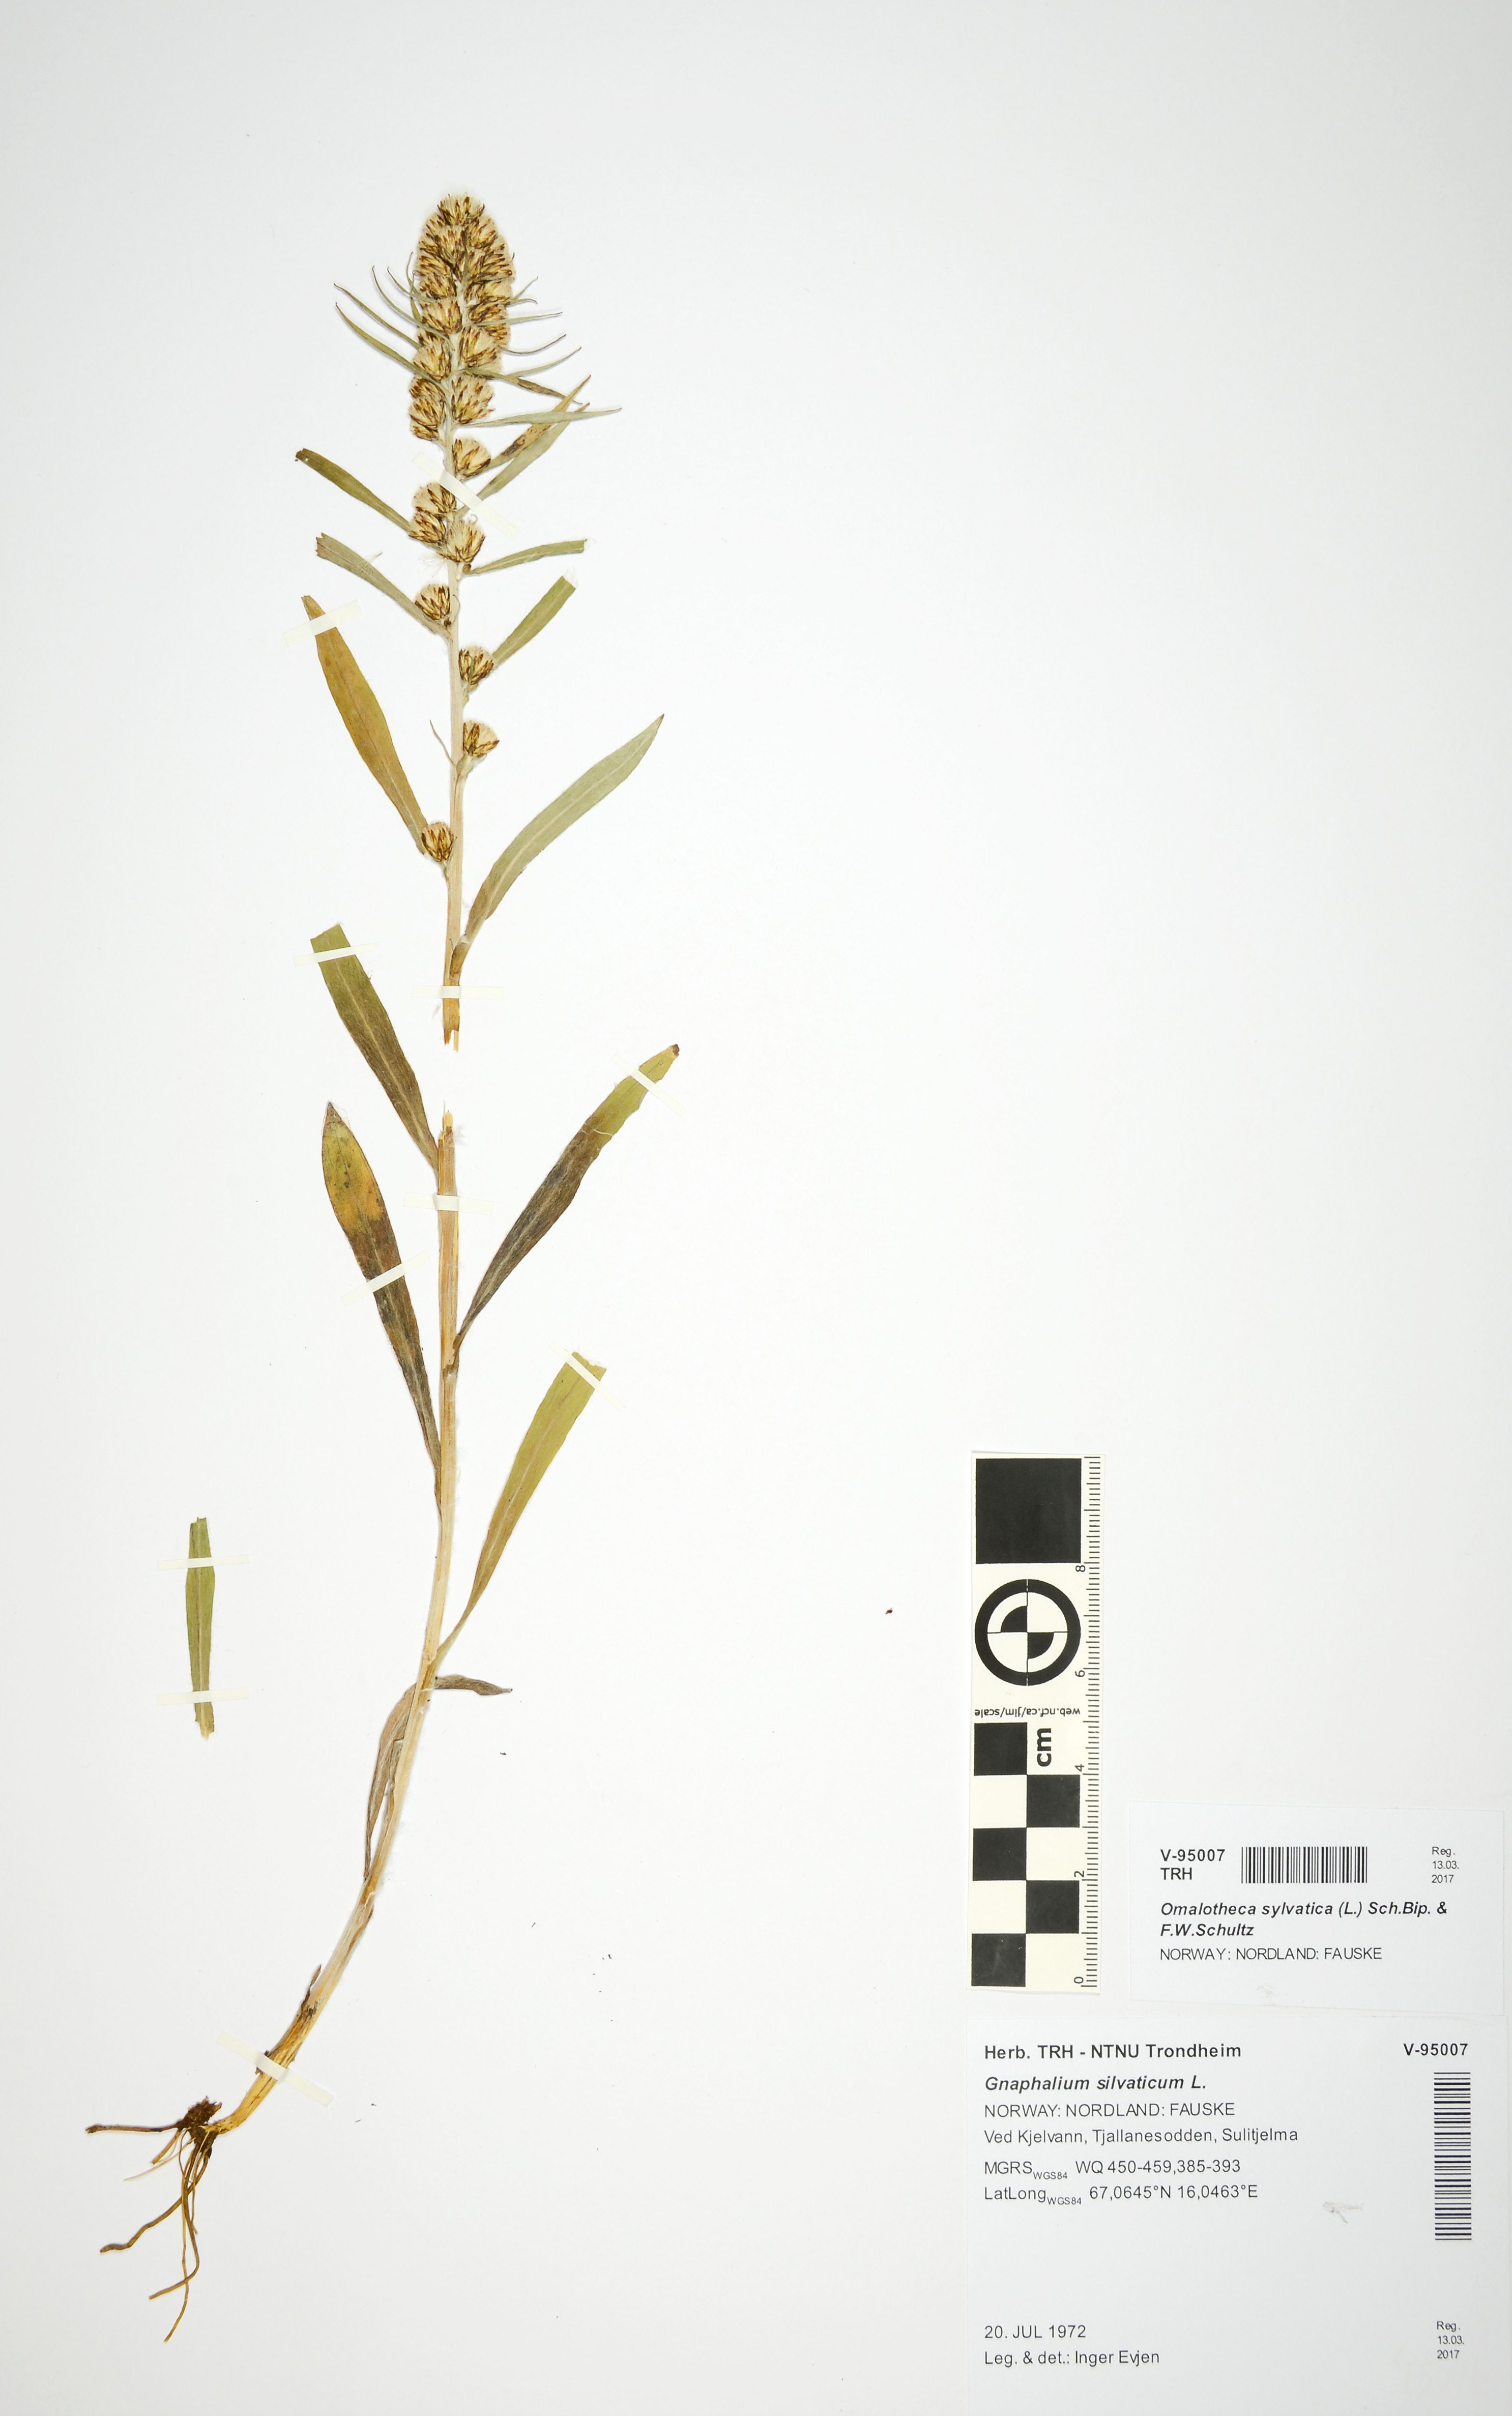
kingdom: Plantae
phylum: Tracheophyta
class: Magnoliopsida
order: Asterales
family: Asteraceae
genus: Omalotheca
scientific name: Omalotheca sylvatica
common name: Heath cudweed
